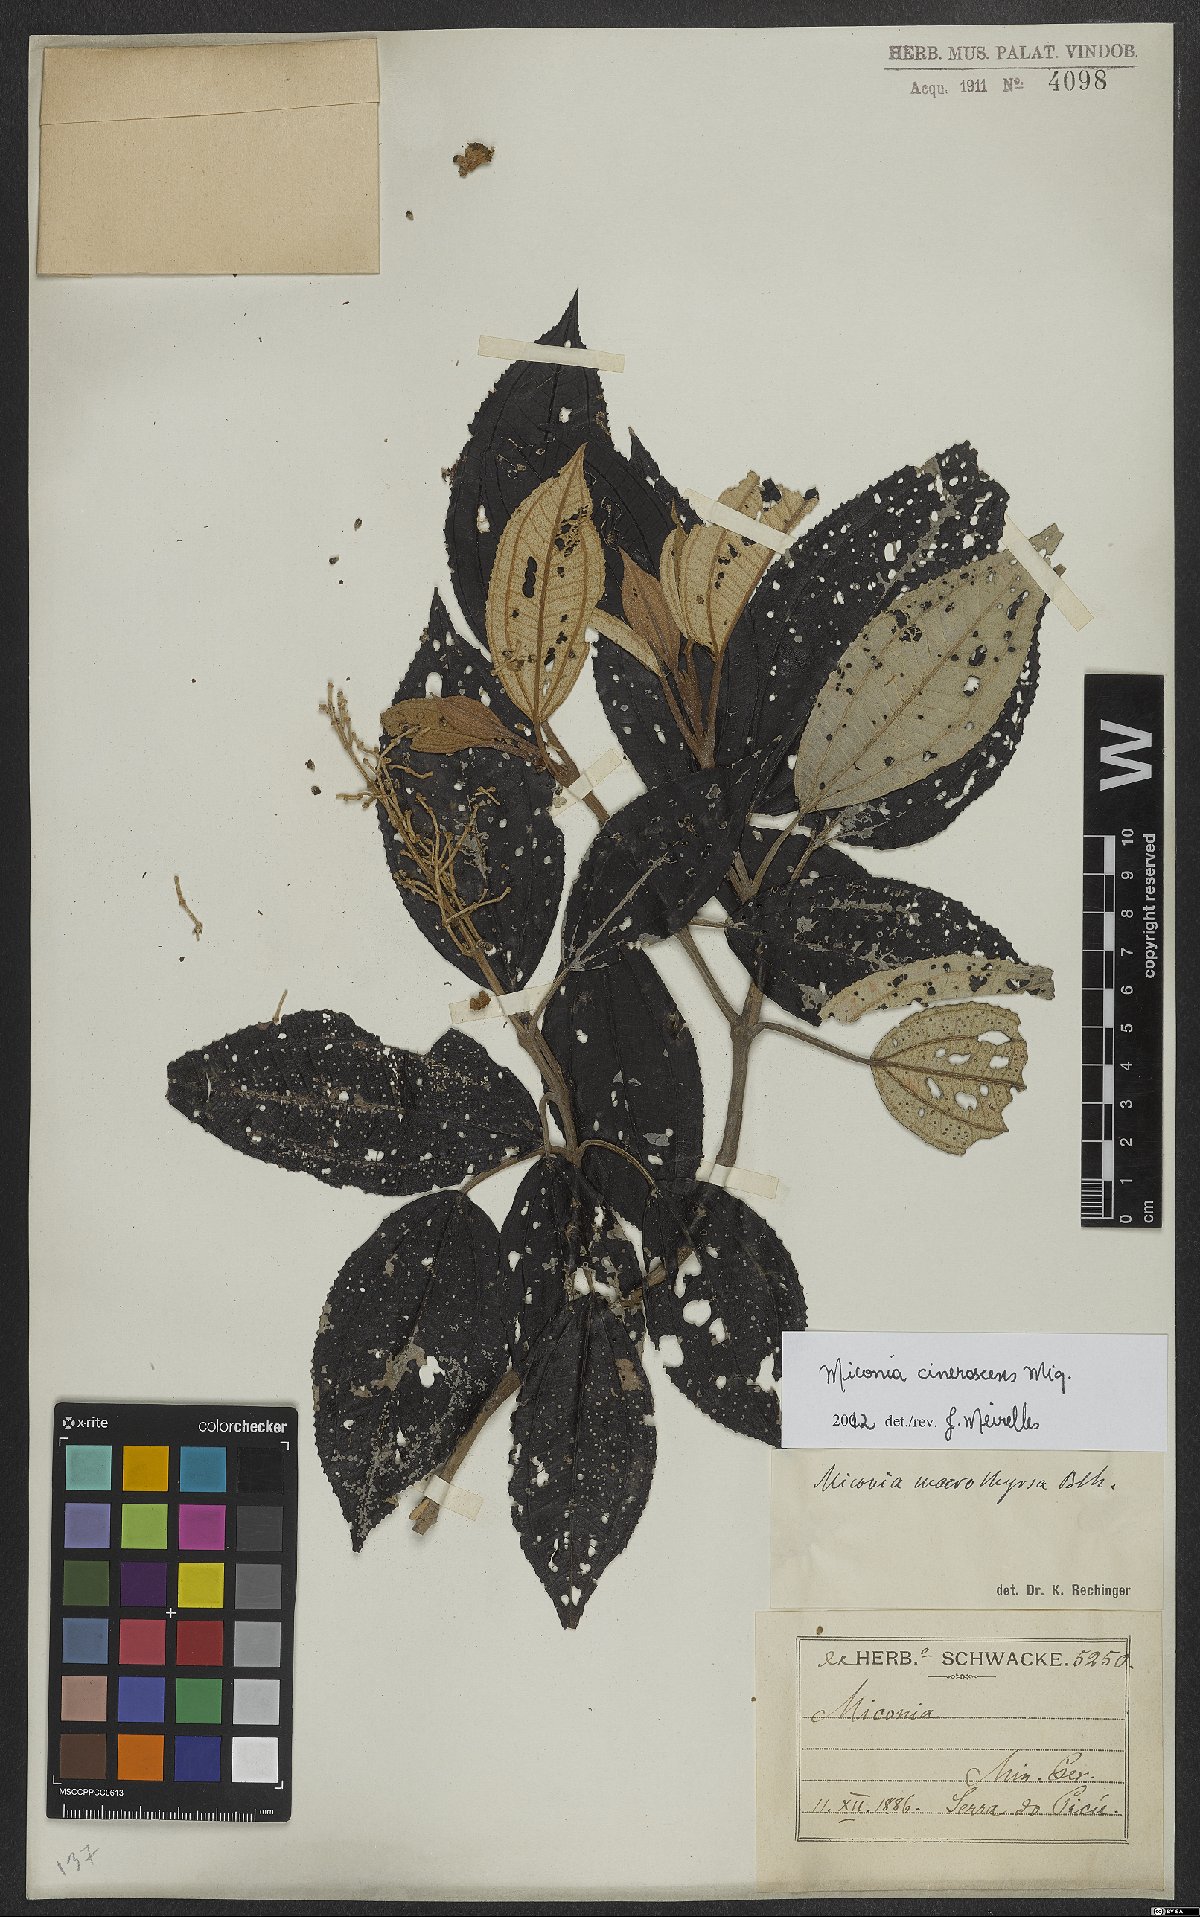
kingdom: Plantae
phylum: Tracheophyta
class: Magnoliopsida
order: Myrtales
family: Melastomataceae
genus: Miconia
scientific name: Miconia cinerascens
